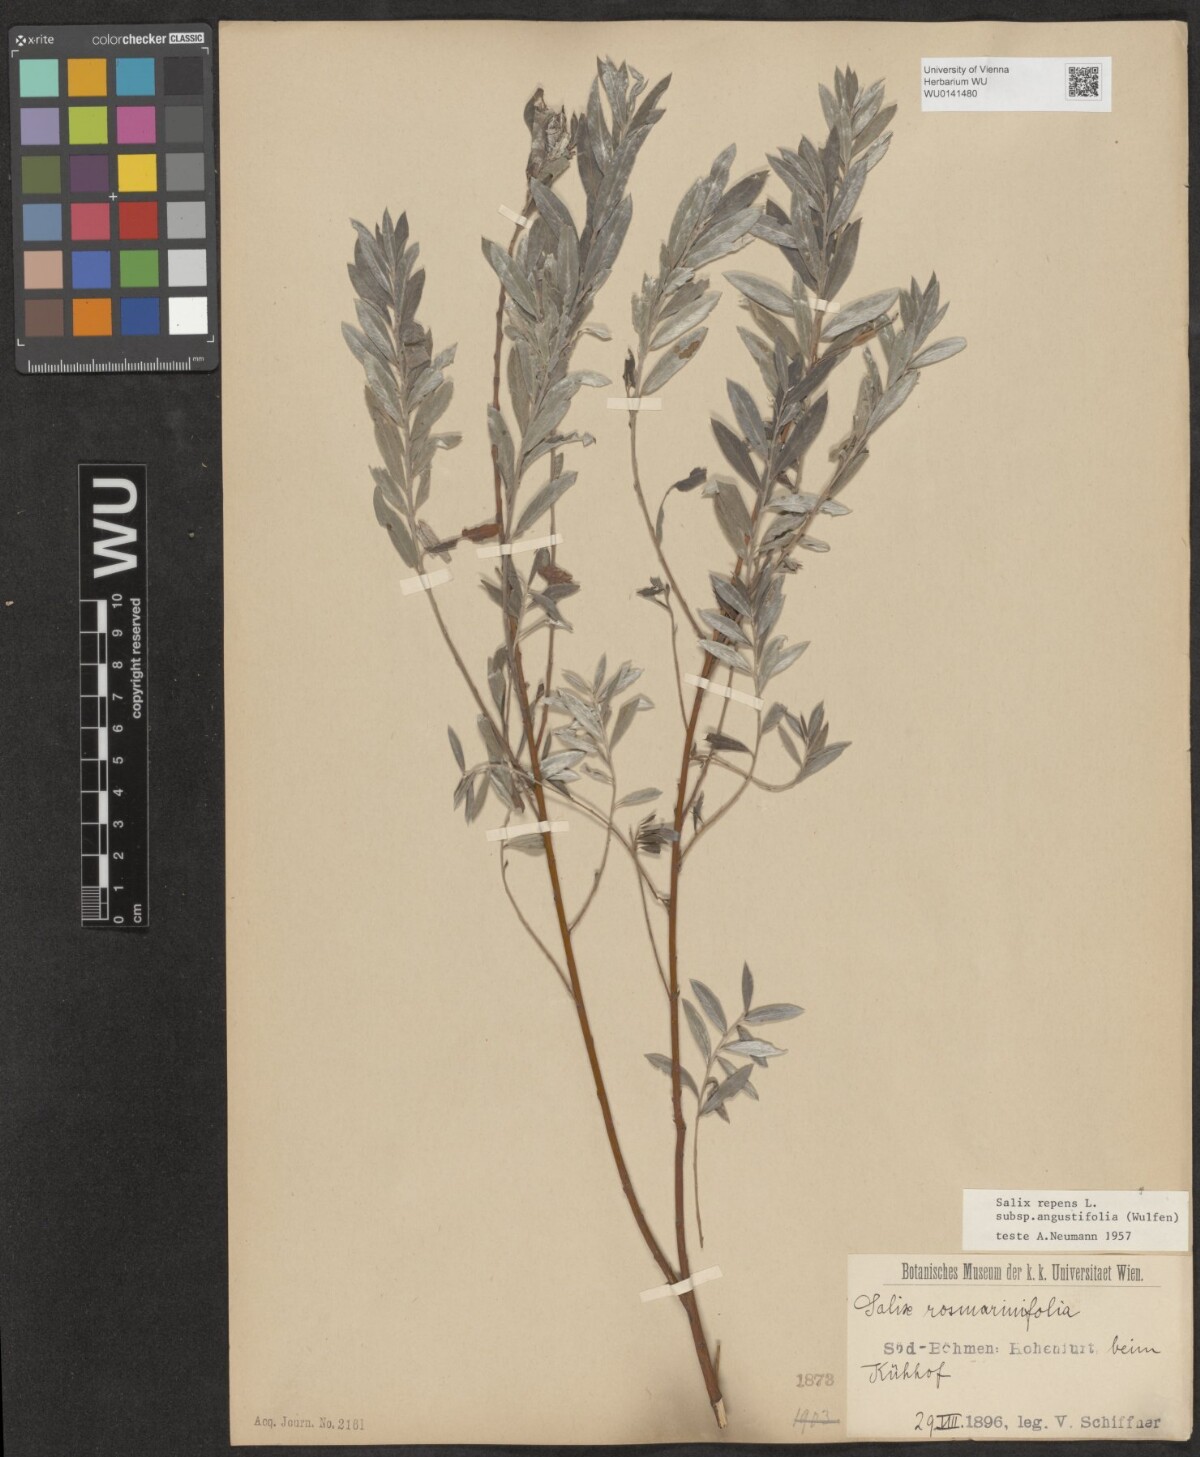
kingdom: Plantae
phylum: Tracheophyta
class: Magnoliopsida
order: Malpighiales
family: Salicaceae
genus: Salix
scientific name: Salix rosmarinifolia
